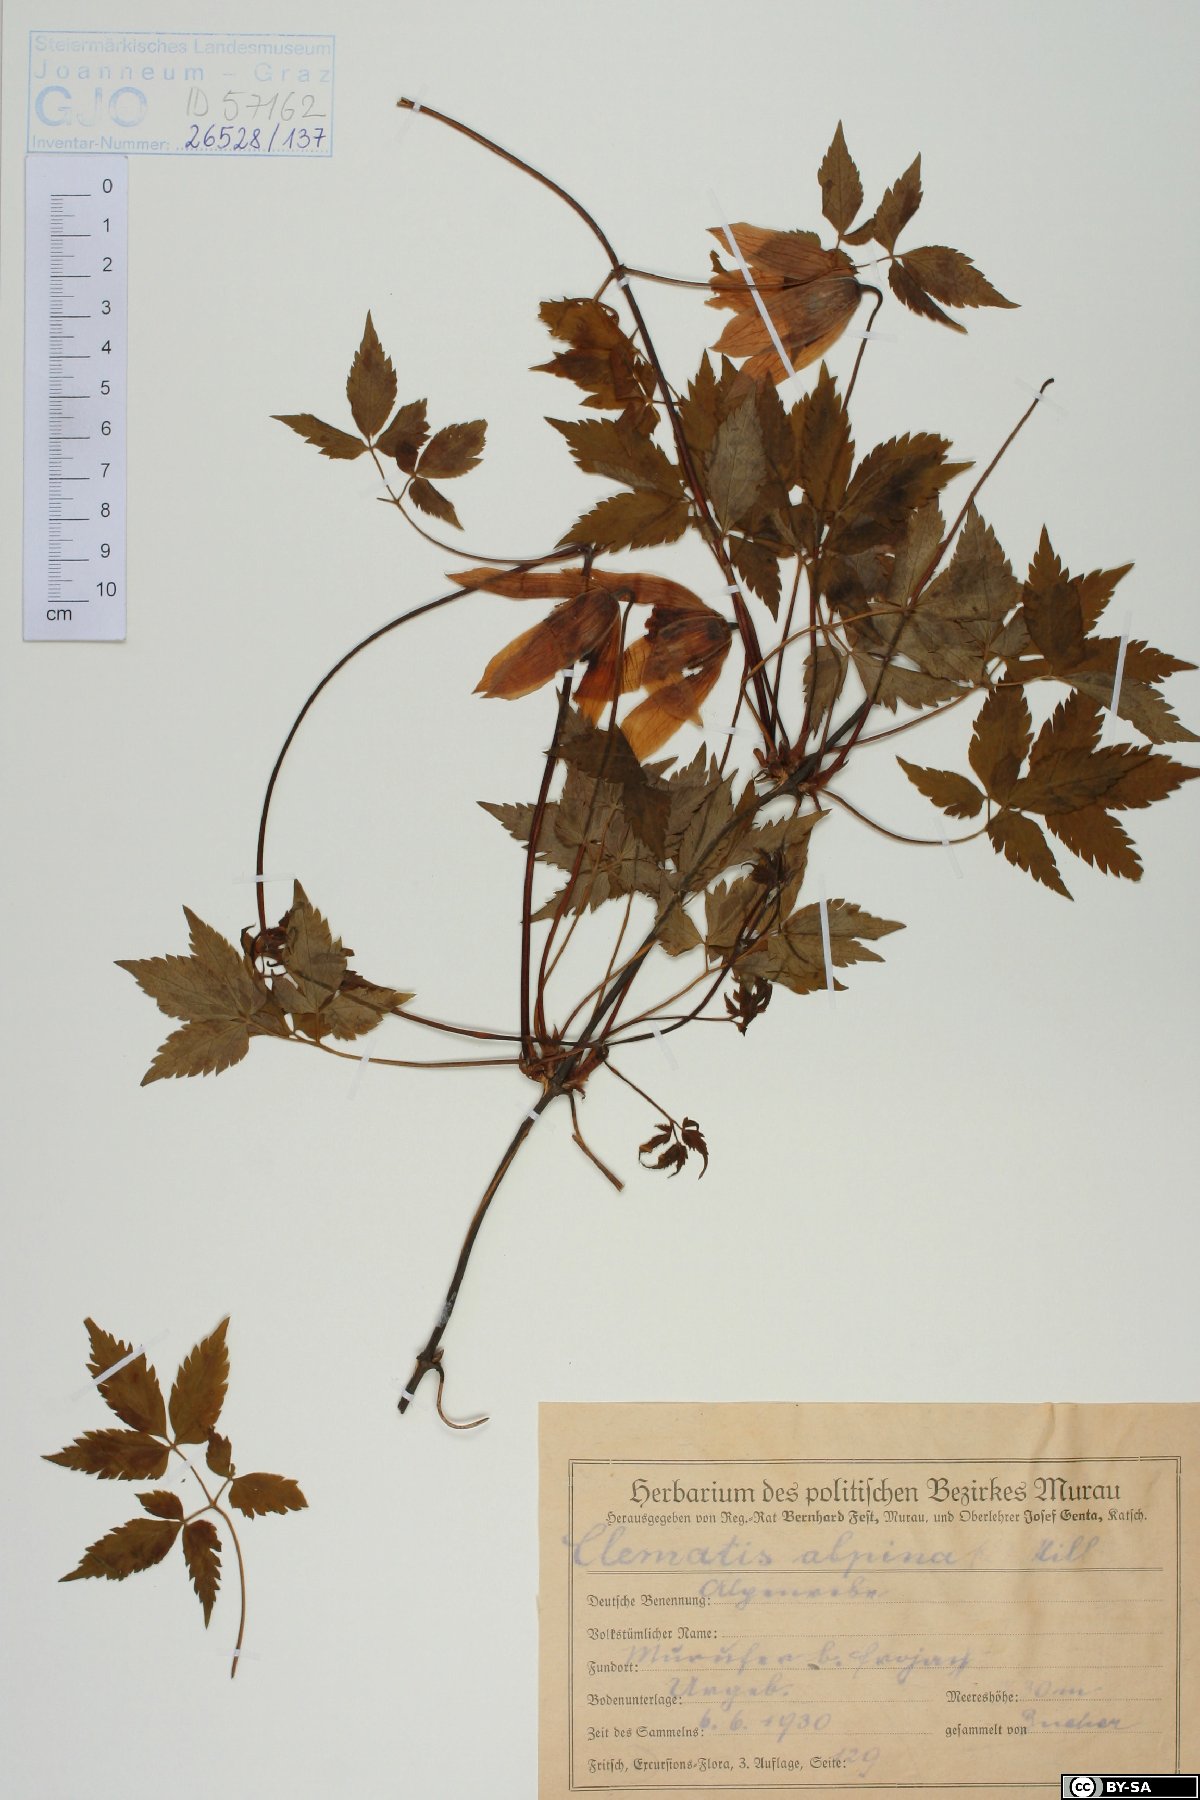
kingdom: Plantae
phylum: Tracheophyta
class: Magnoliopsida
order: Ranunculales
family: Ranunculaceae
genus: Clematis
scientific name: Clematis alpina
